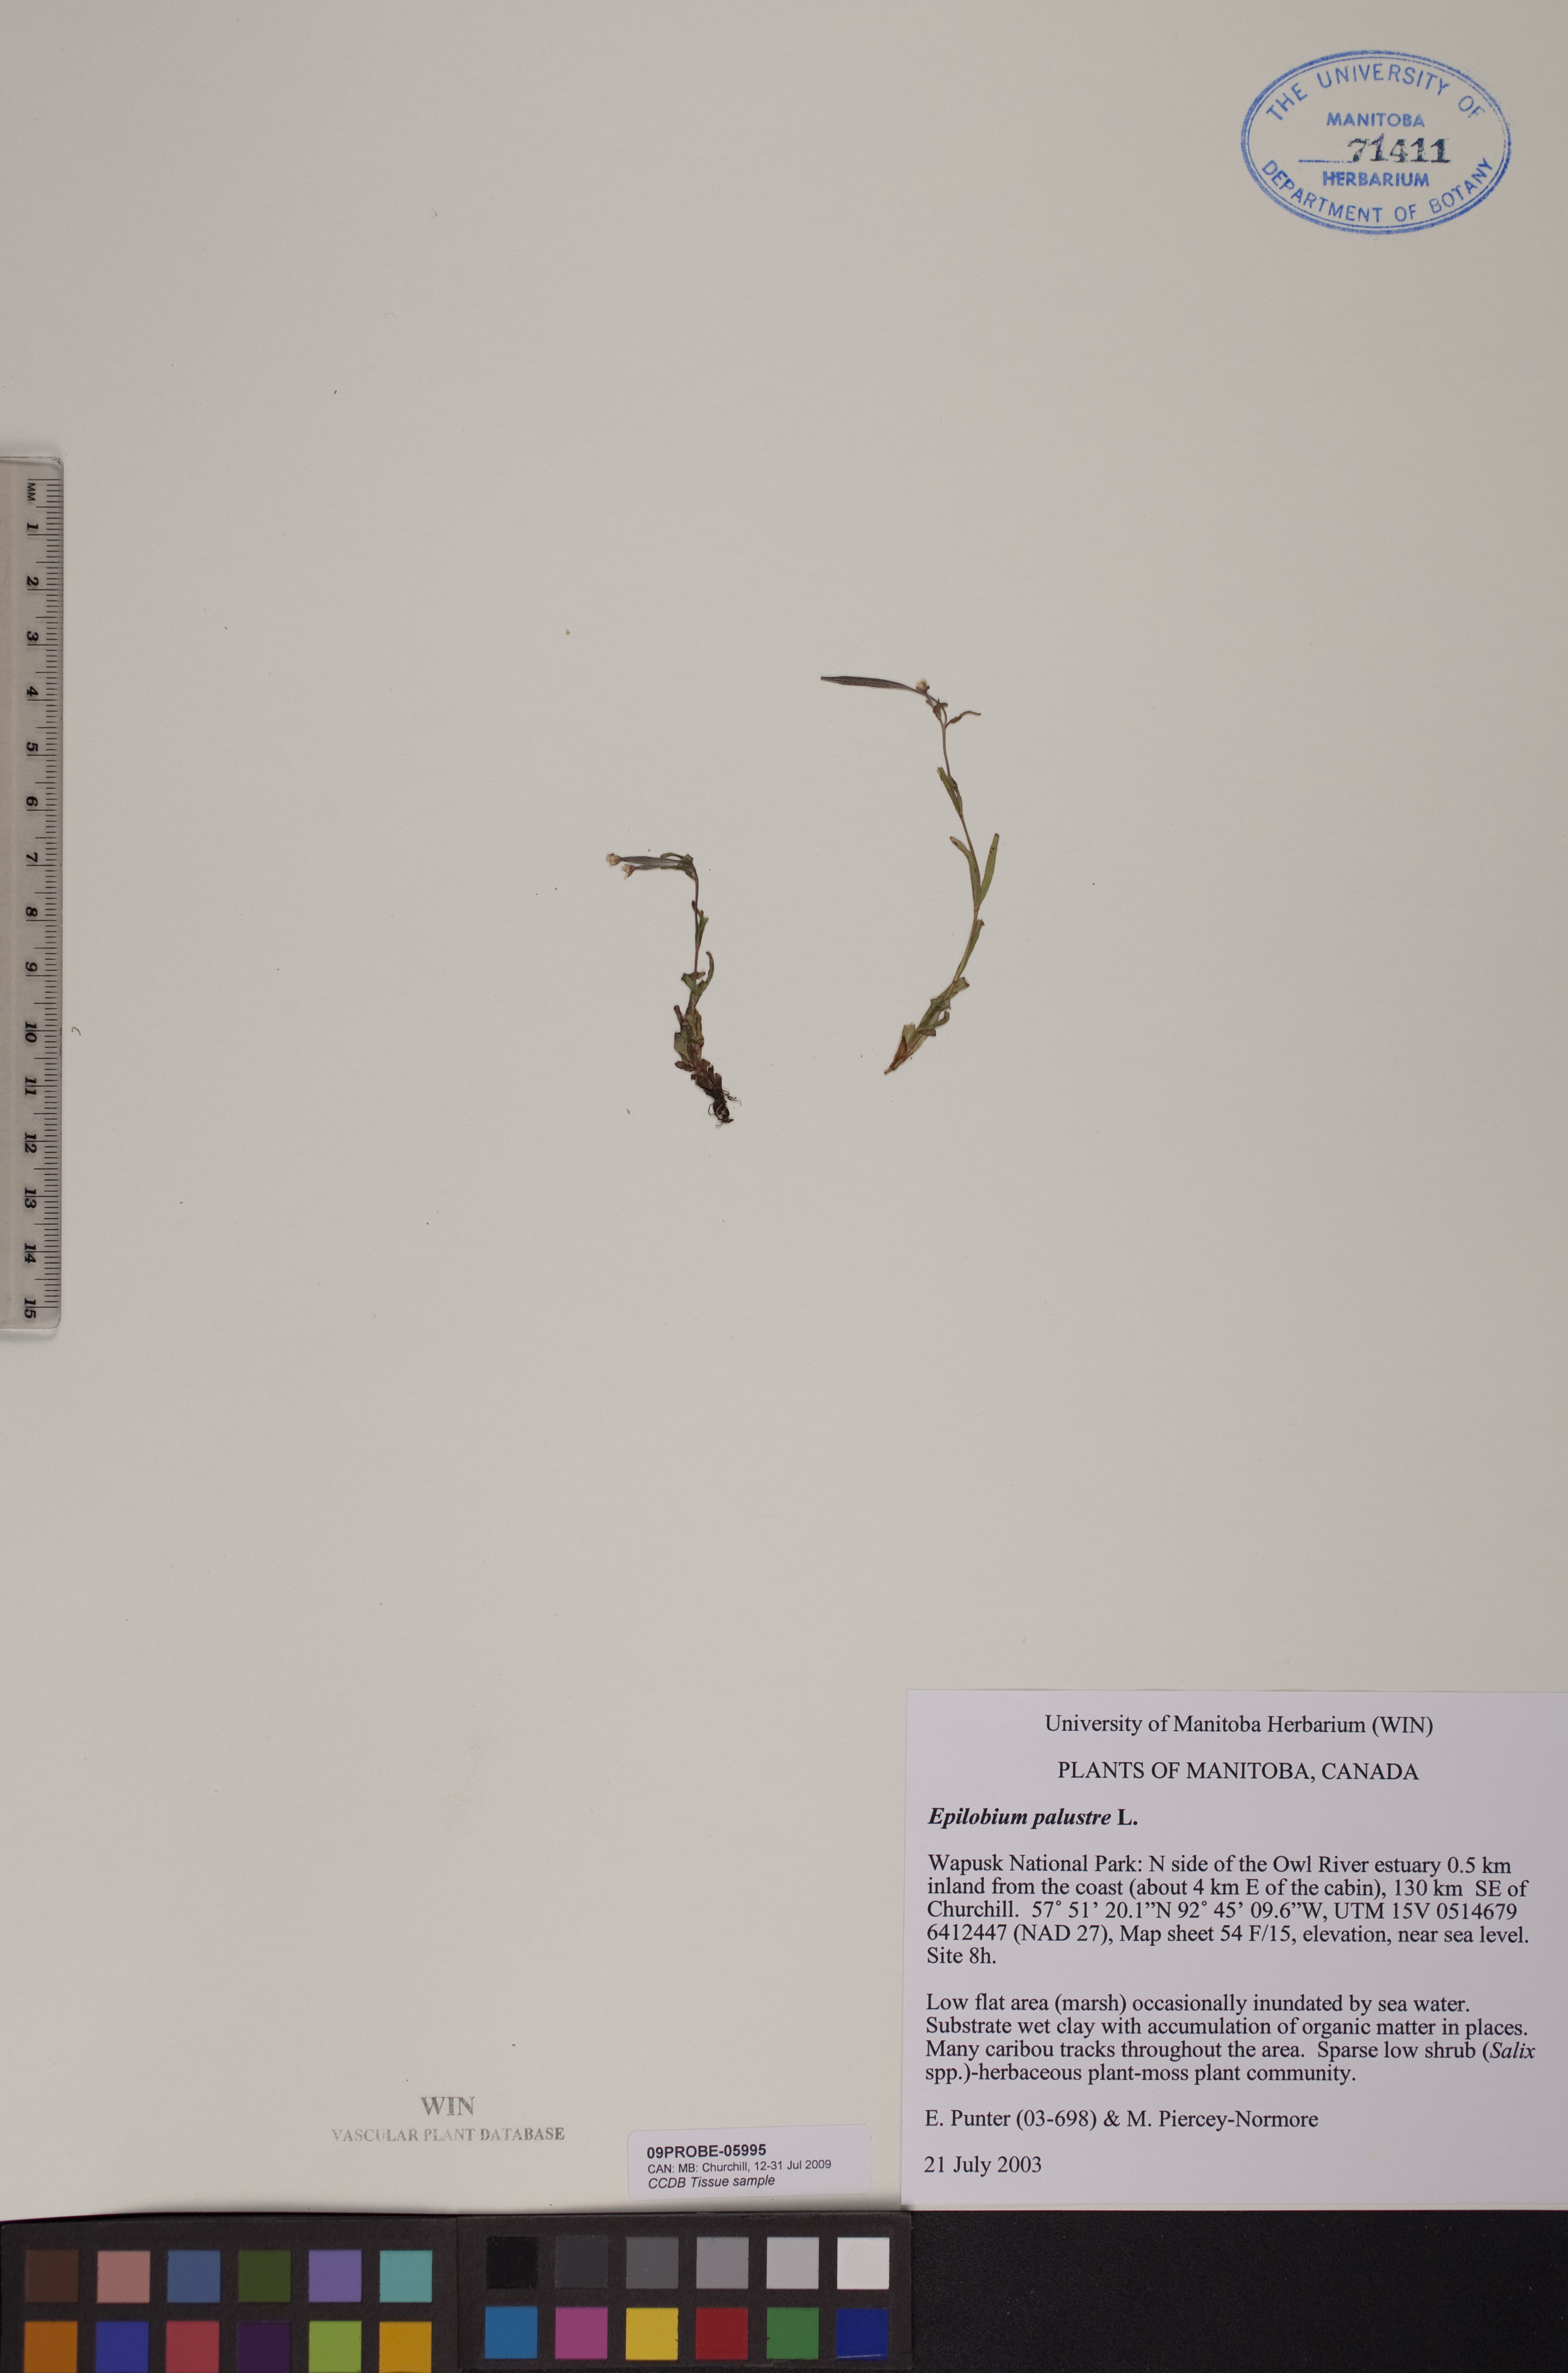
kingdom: Plantae
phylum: Tracheophyta
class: Magnoliopsida
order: Myrtales
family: Onagraceae
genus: Epilobium
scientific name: Epilobium palustre
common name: Marsh willowherb
